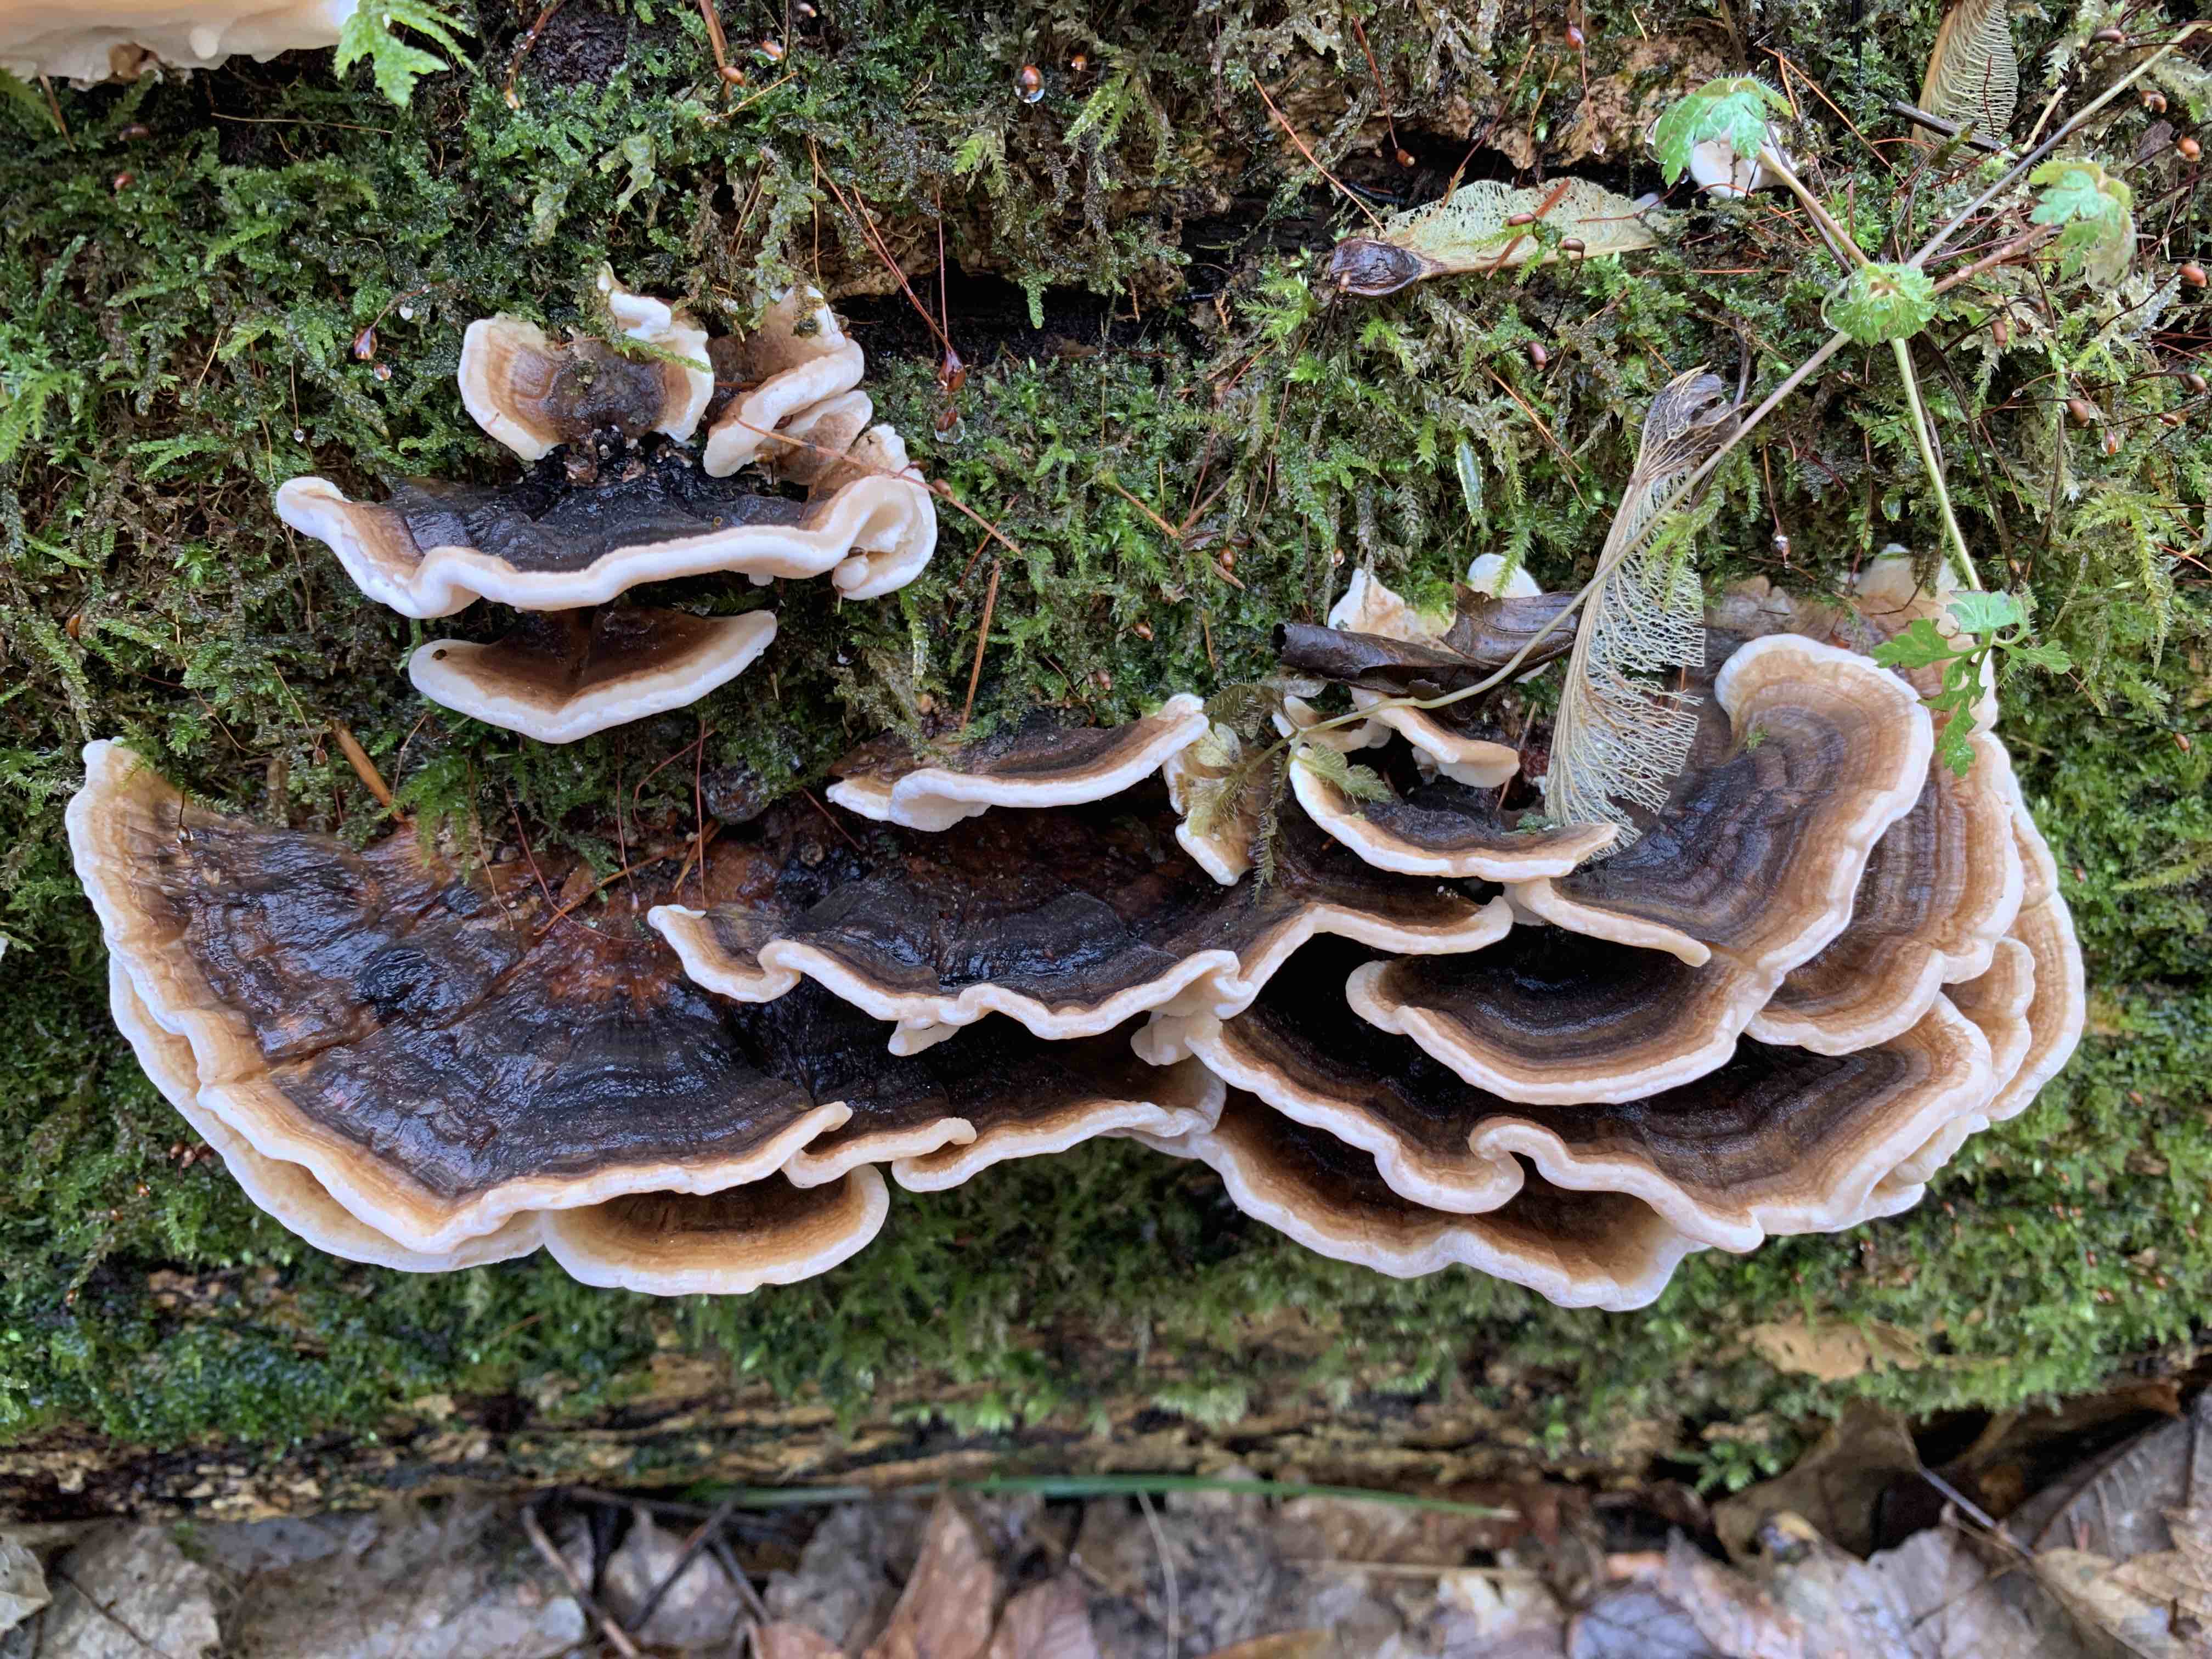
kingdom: Fungi
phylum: Basidiomycota
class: Agaricomycetes
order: Polyporales
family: Polyporaceae
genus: Trametes
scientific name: Trametes versicolor
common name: broget læderporesvamp
